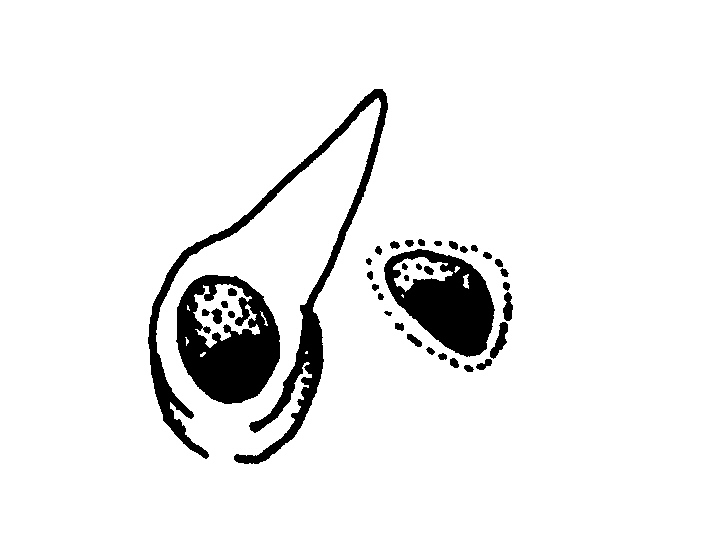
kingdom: Animalia
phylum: Chordata
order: Aulopiformes
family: Synodontidae
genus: Synodus
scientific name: Synodus indicus
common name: Indian lizardfish
